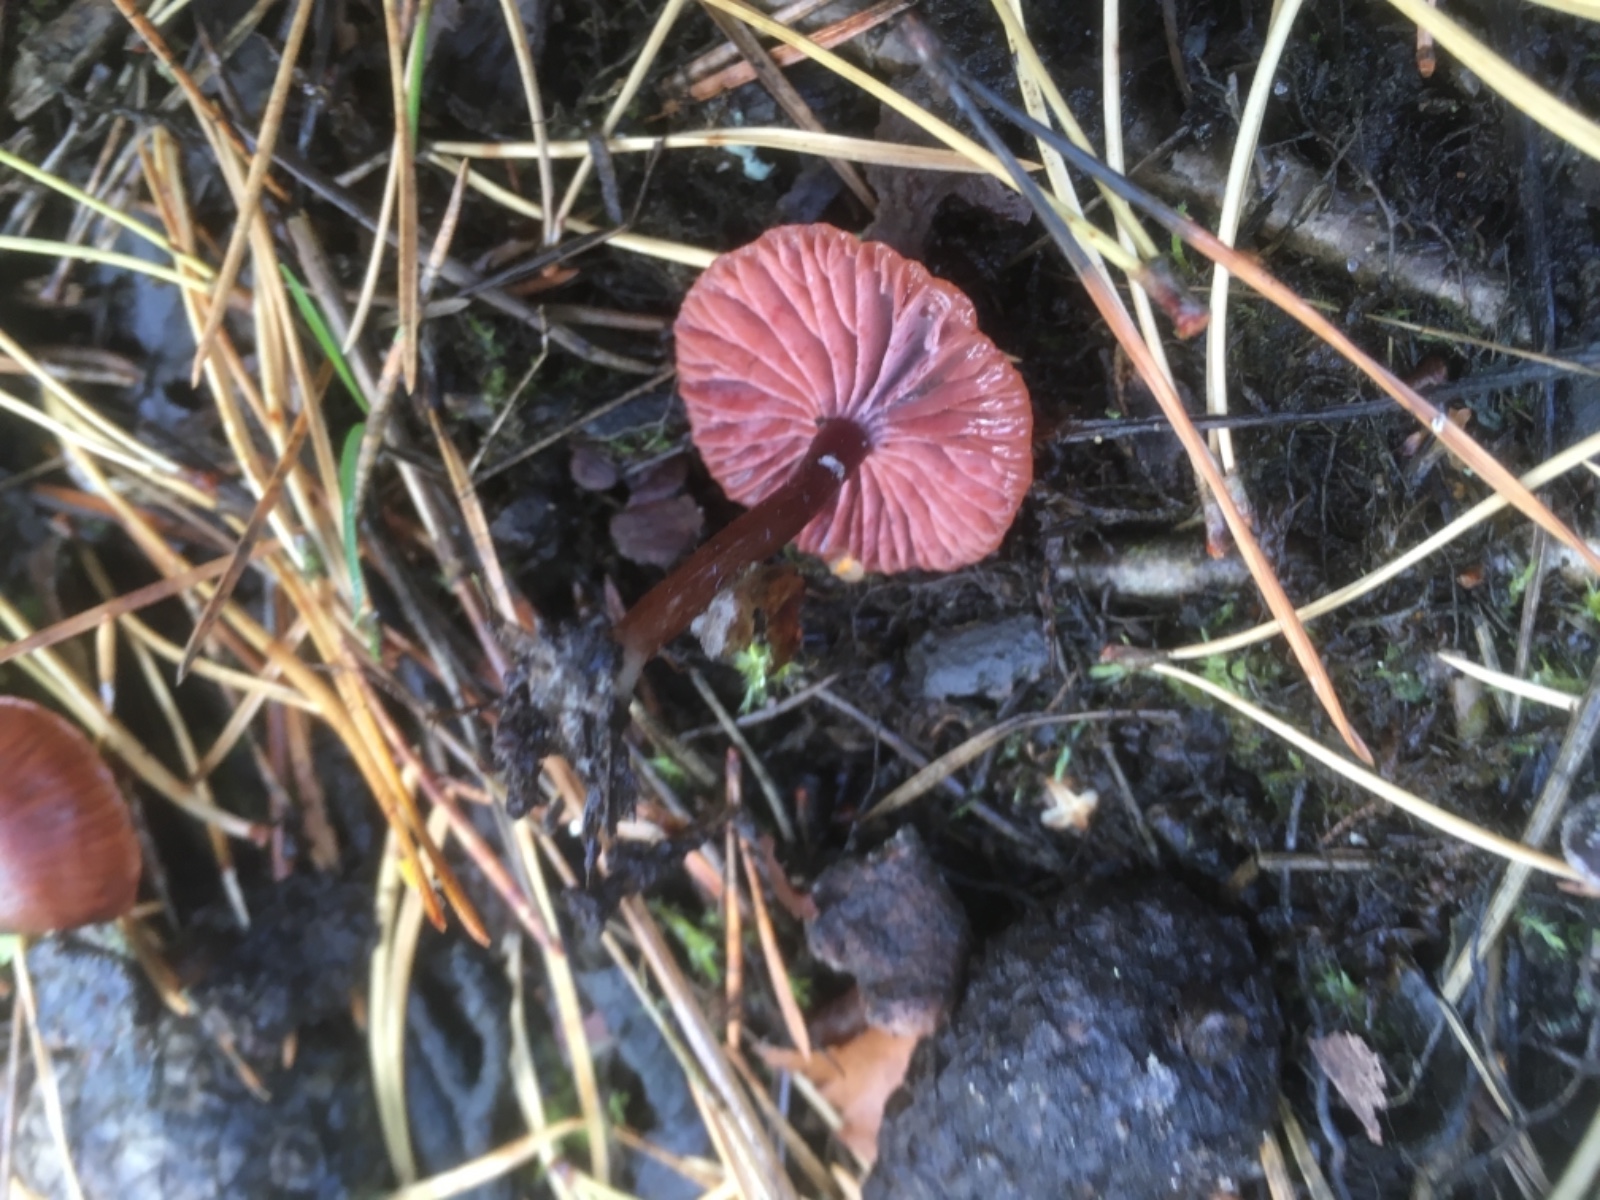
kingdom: Fungi
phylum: Basidiomycota
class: Agaricomycetes
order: Agaricales
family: Hydnangiaceae
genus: Laccaria
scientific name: Laccaria laccata
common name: rød ametysthat
